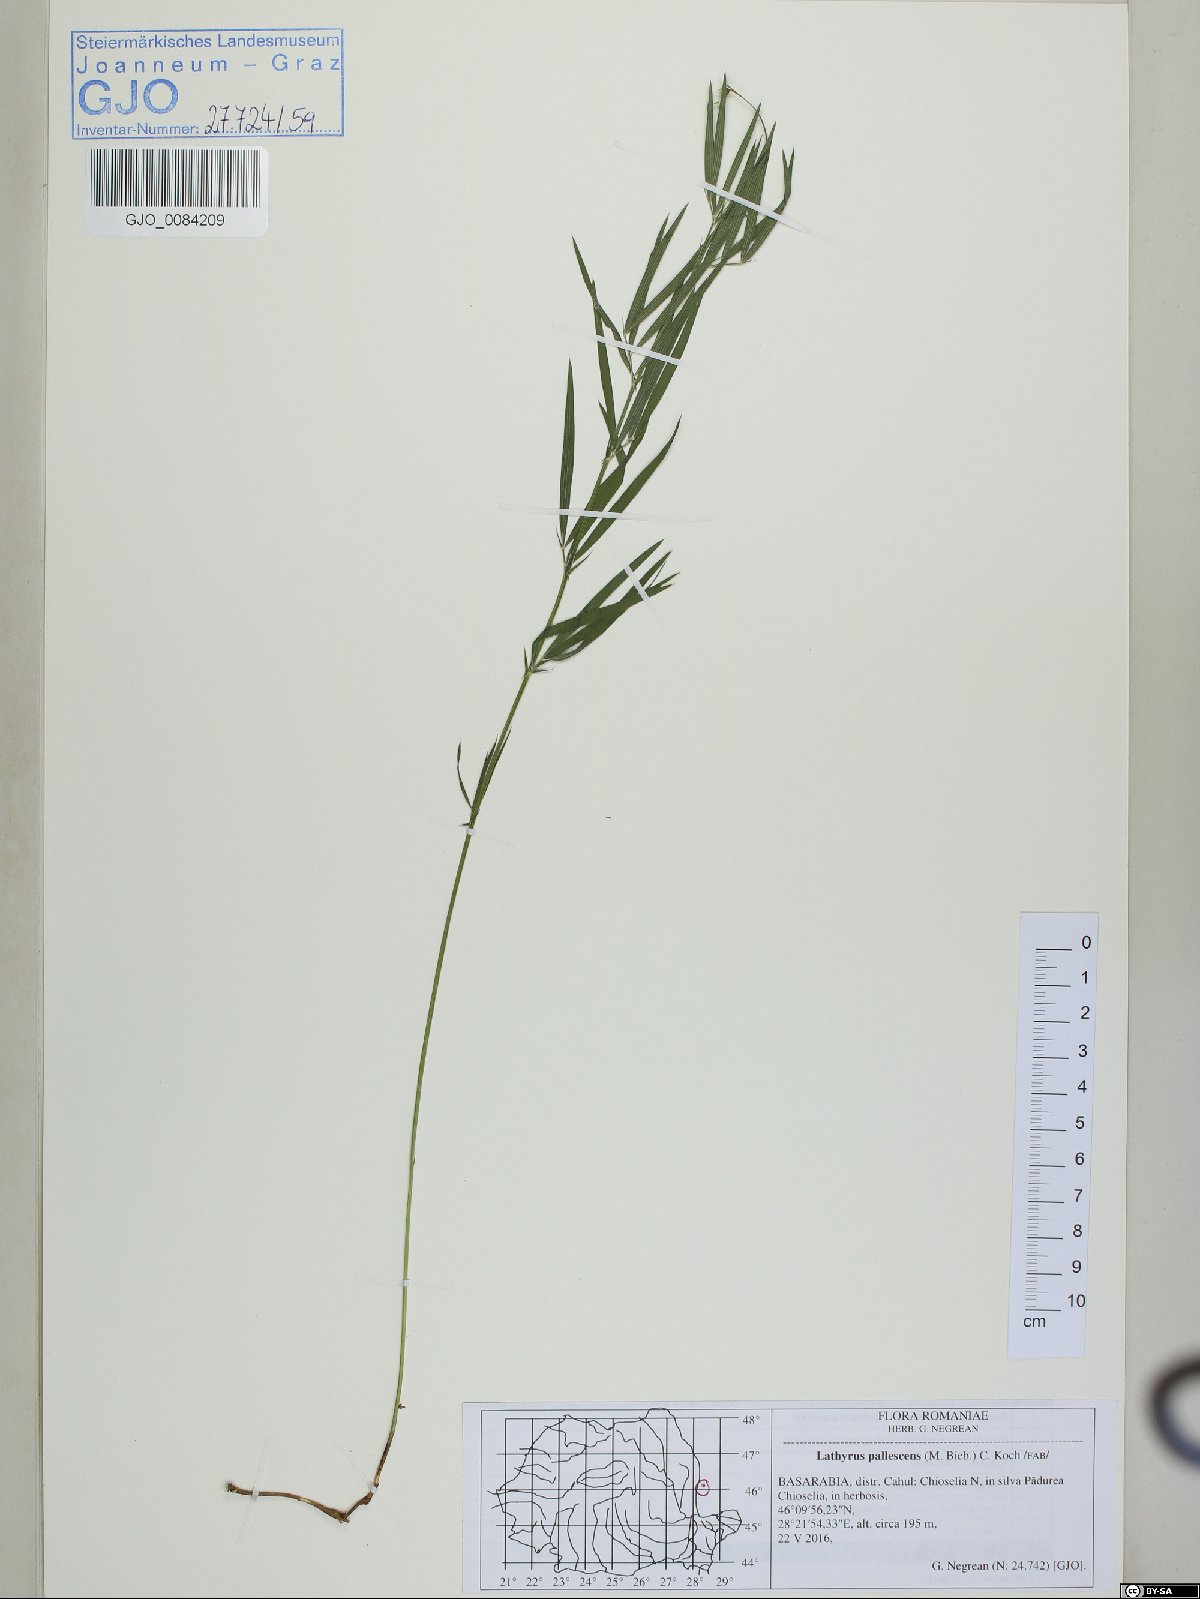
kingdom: Plantae
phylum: Tracheophyta
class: Magnoliopsida
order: Fabales
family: Fabaceae
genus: Lathyrus
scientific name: Lathyrus pallescens
